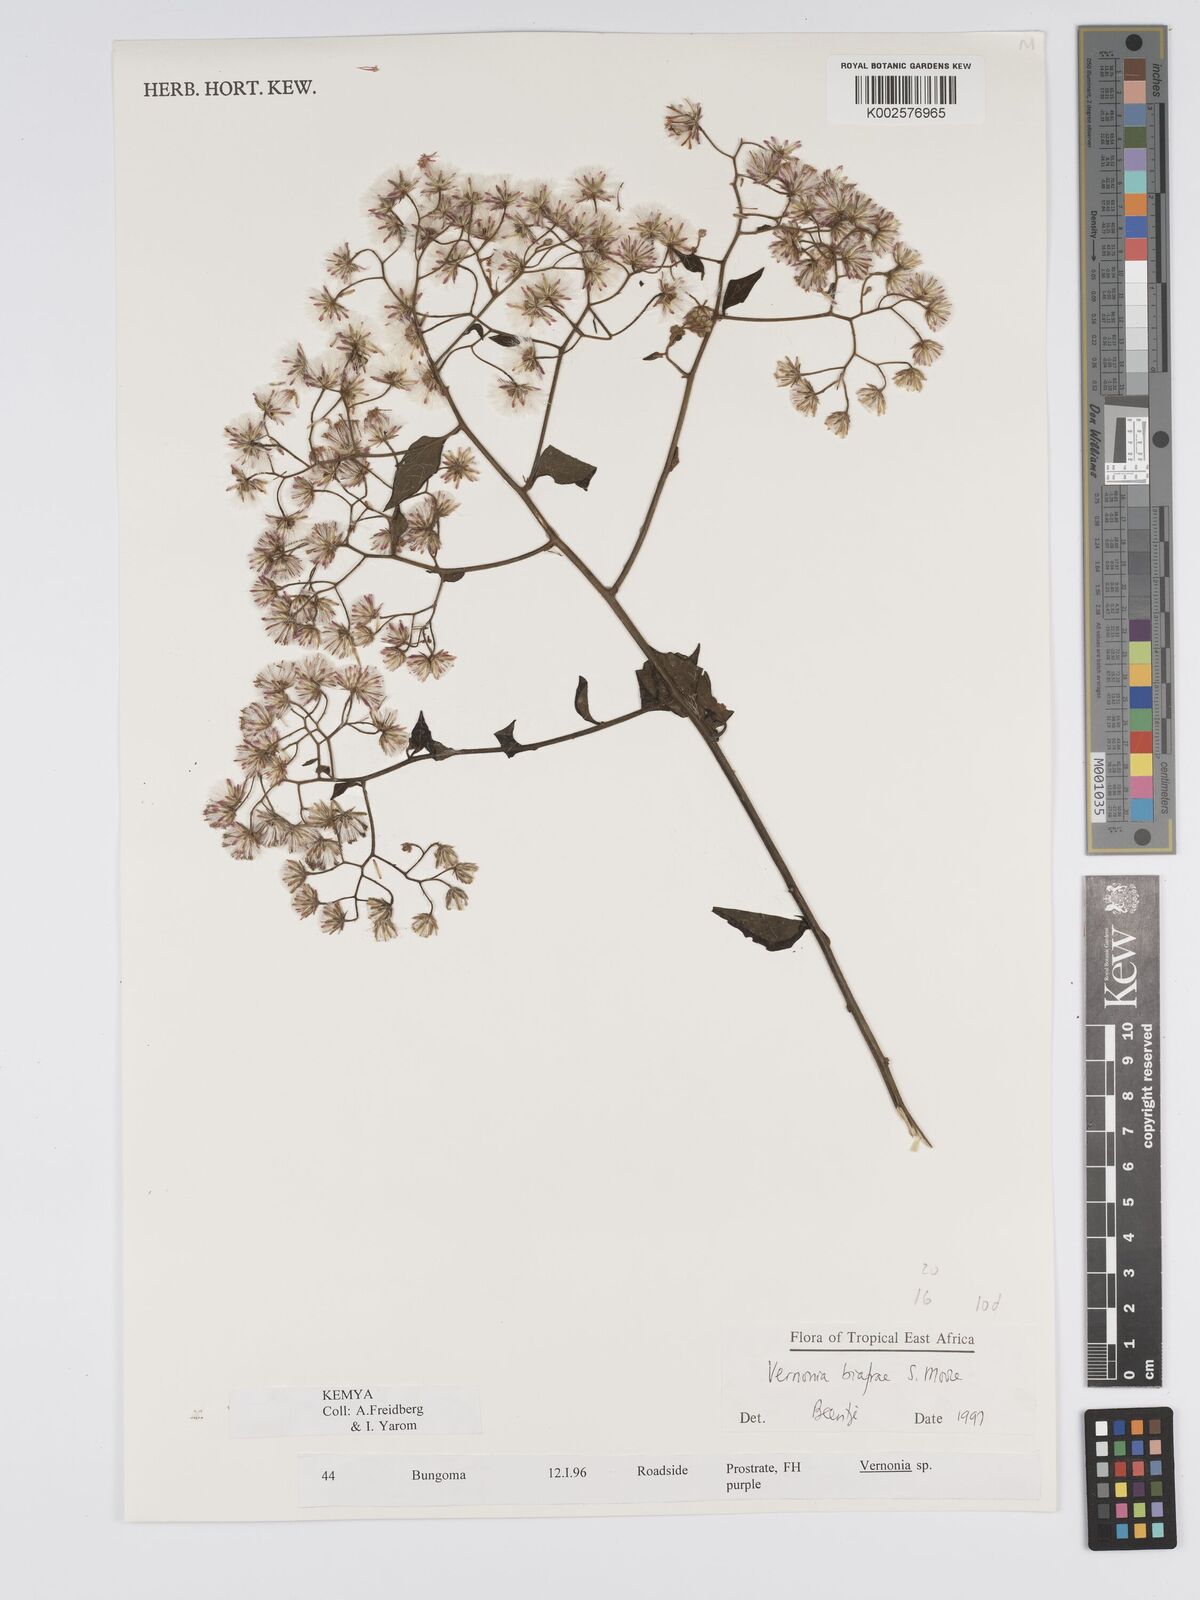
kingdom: Plantae
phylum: Tracheophyta
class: Magnoliopsida
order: Asterales
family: Asteraceae
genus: Distephanus
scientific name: Distephanus biafrae
